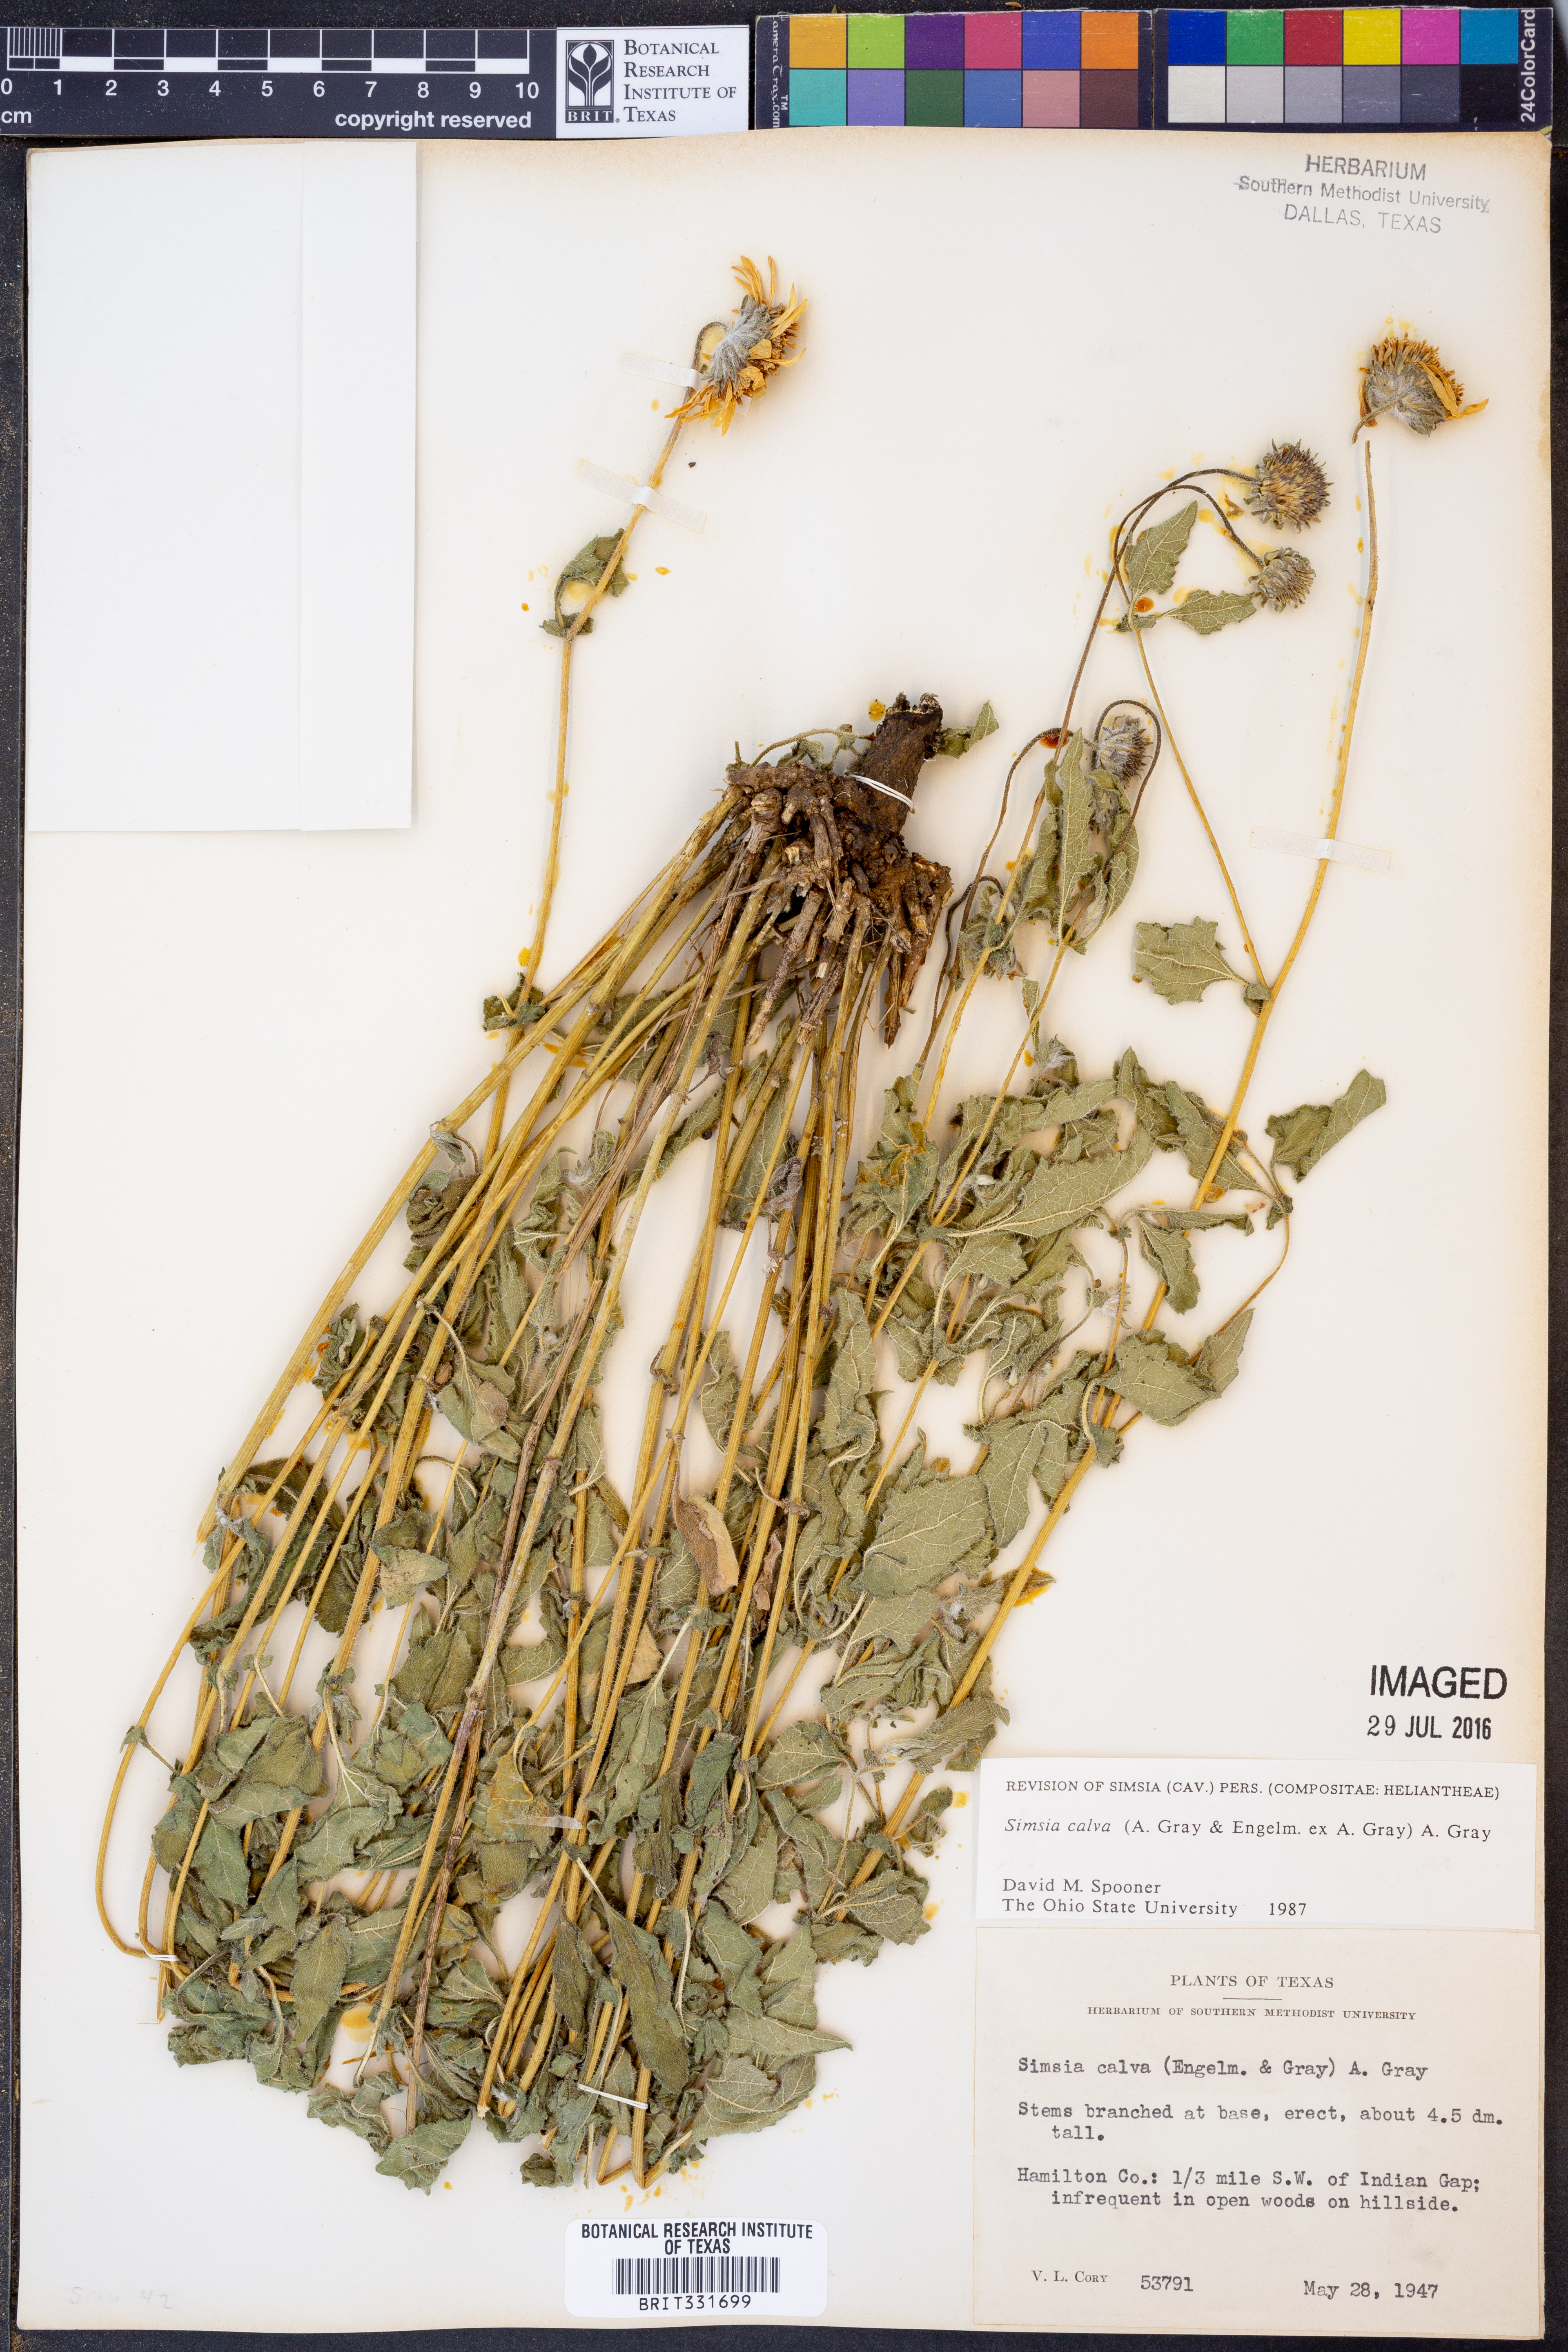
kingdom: Plantae
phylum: Tracheophyta
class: Magnoliopsida
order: Asterales
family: Asteraceae
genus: Simsia
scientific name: Simsia calva
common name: Awnless bush-sunflower
